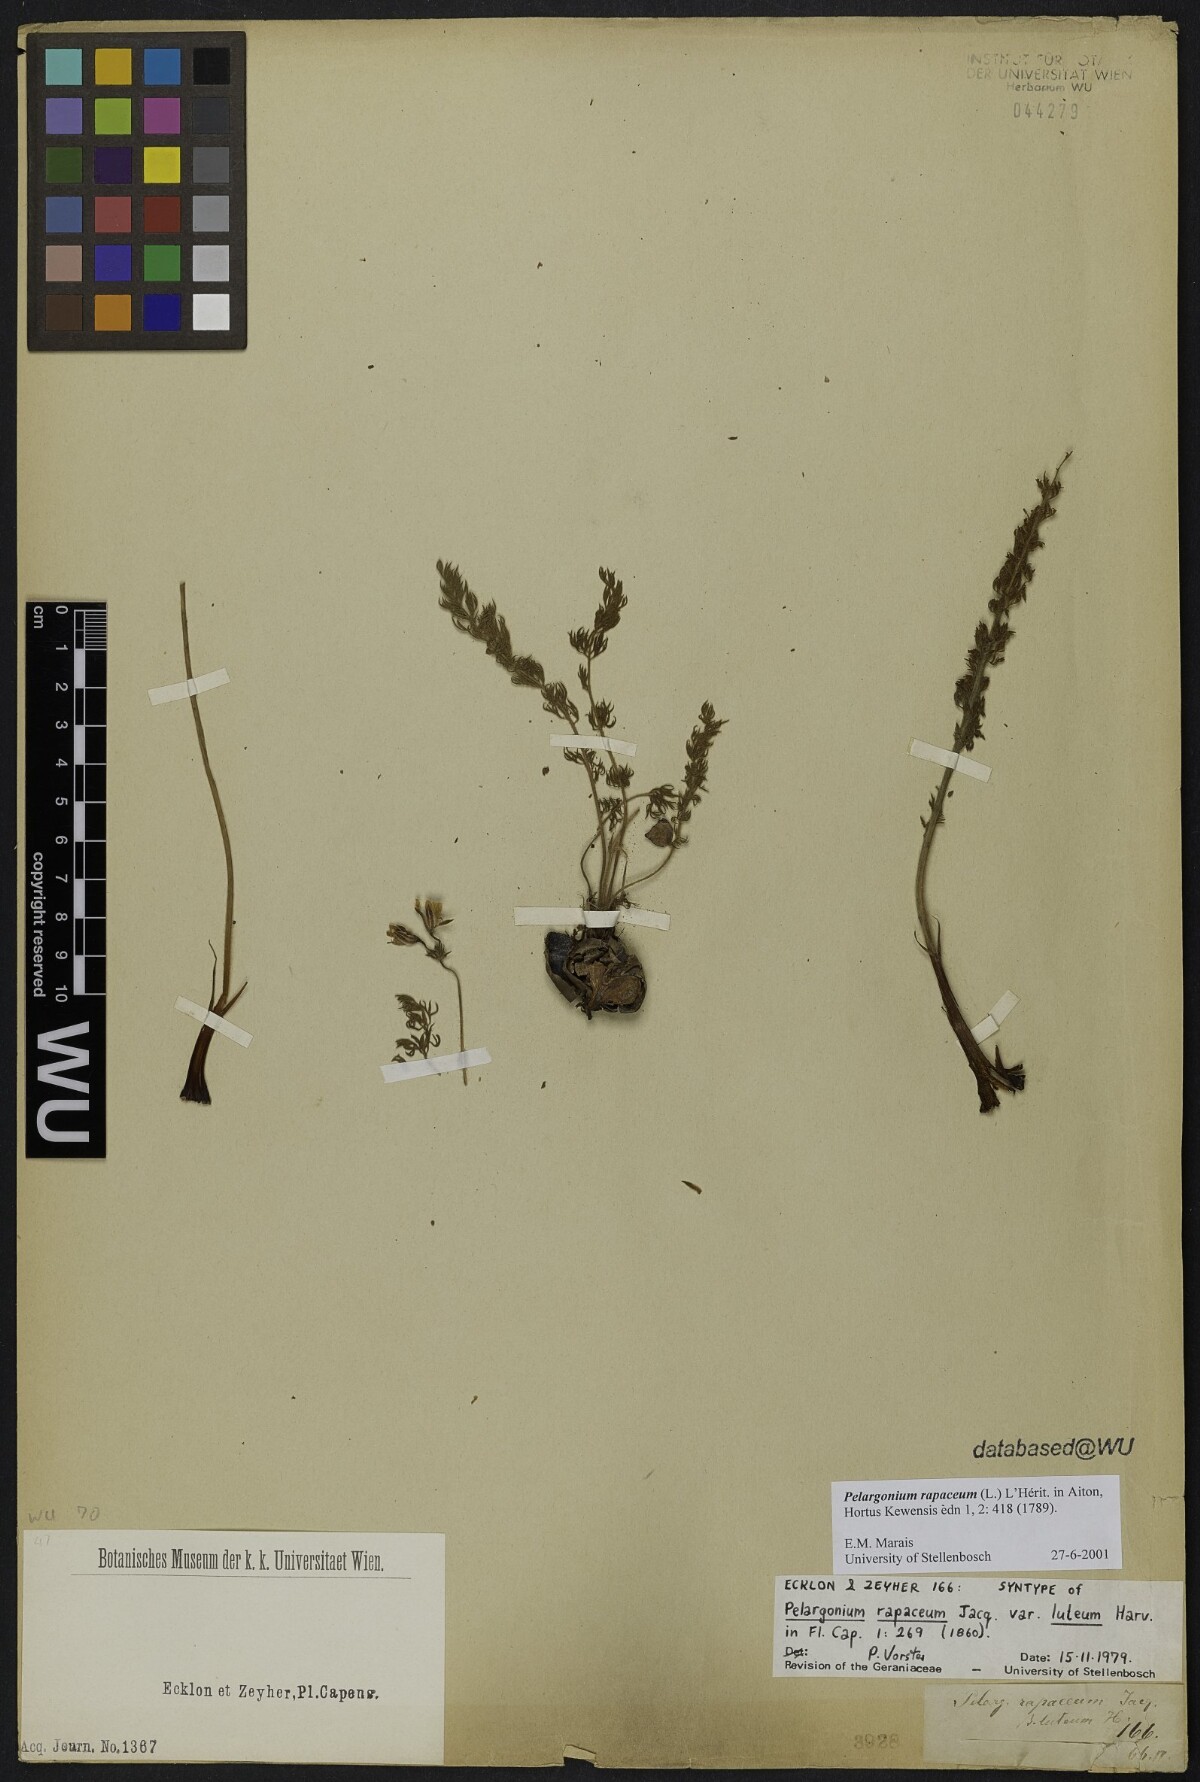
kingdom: Plantae
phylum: Tracheophyta
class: Magnoliopsida
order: Geraniales
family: Geraniaceae
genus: Pelargonium
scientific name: Pelargonium rapaceum
